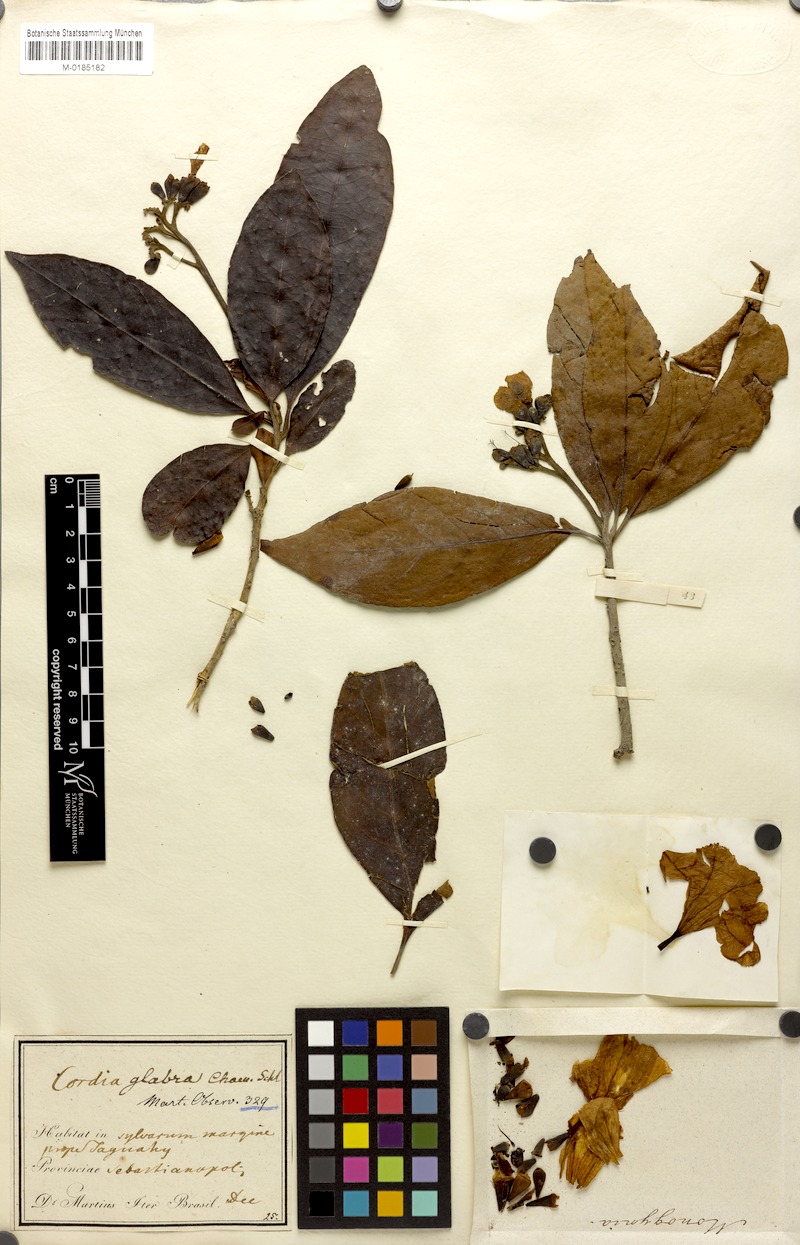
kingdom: Plantae
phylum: Tracheophyta
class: Magnoliopsida
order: Boraginales
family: Cordiaceae
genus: Cordia
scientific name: Cordia taguahuyensis
